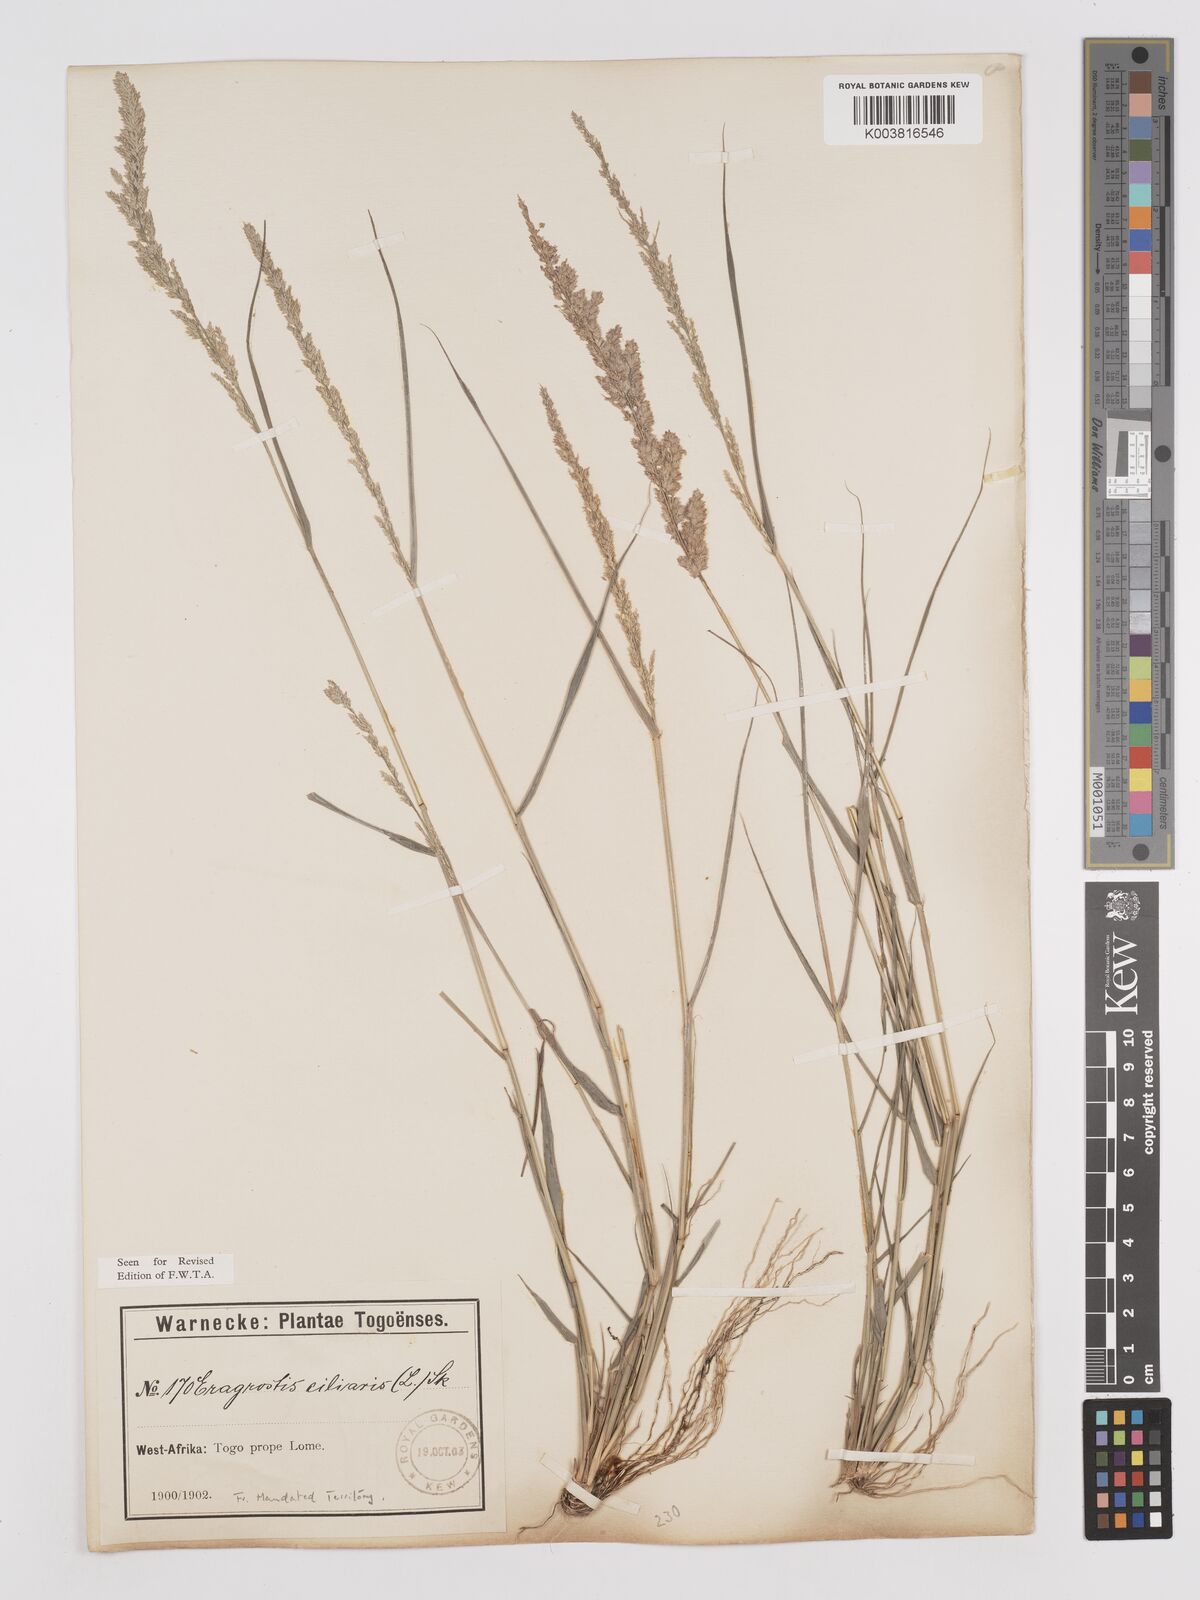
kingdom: Plantae
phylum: Tracheophyta
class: Liliopsida
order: Poales
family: Poaceae
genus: Eragrostis
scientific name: Eragrostis ciliaris
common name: Gophertail lovegrass
